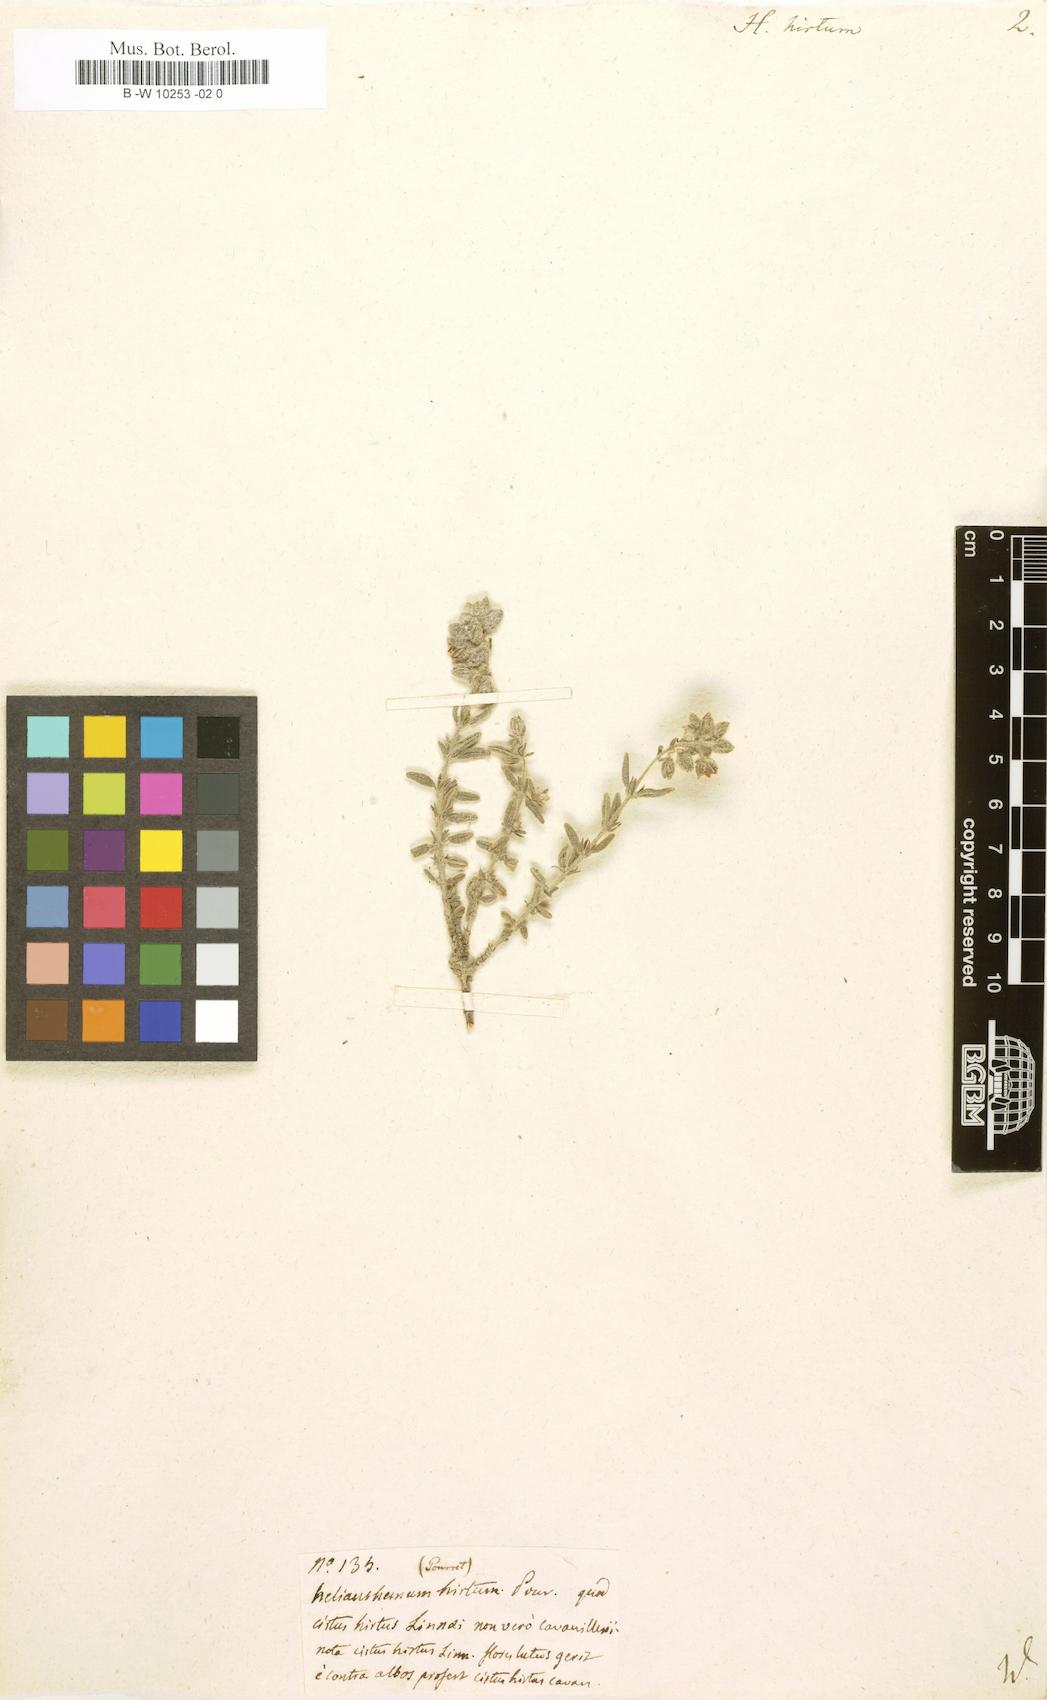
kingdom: Plantae
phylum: Tracheophyta
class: Magnoliopsida
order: Malvales
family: Cistaceae
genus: Helianthemum
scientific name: Helianthemum hirtum
